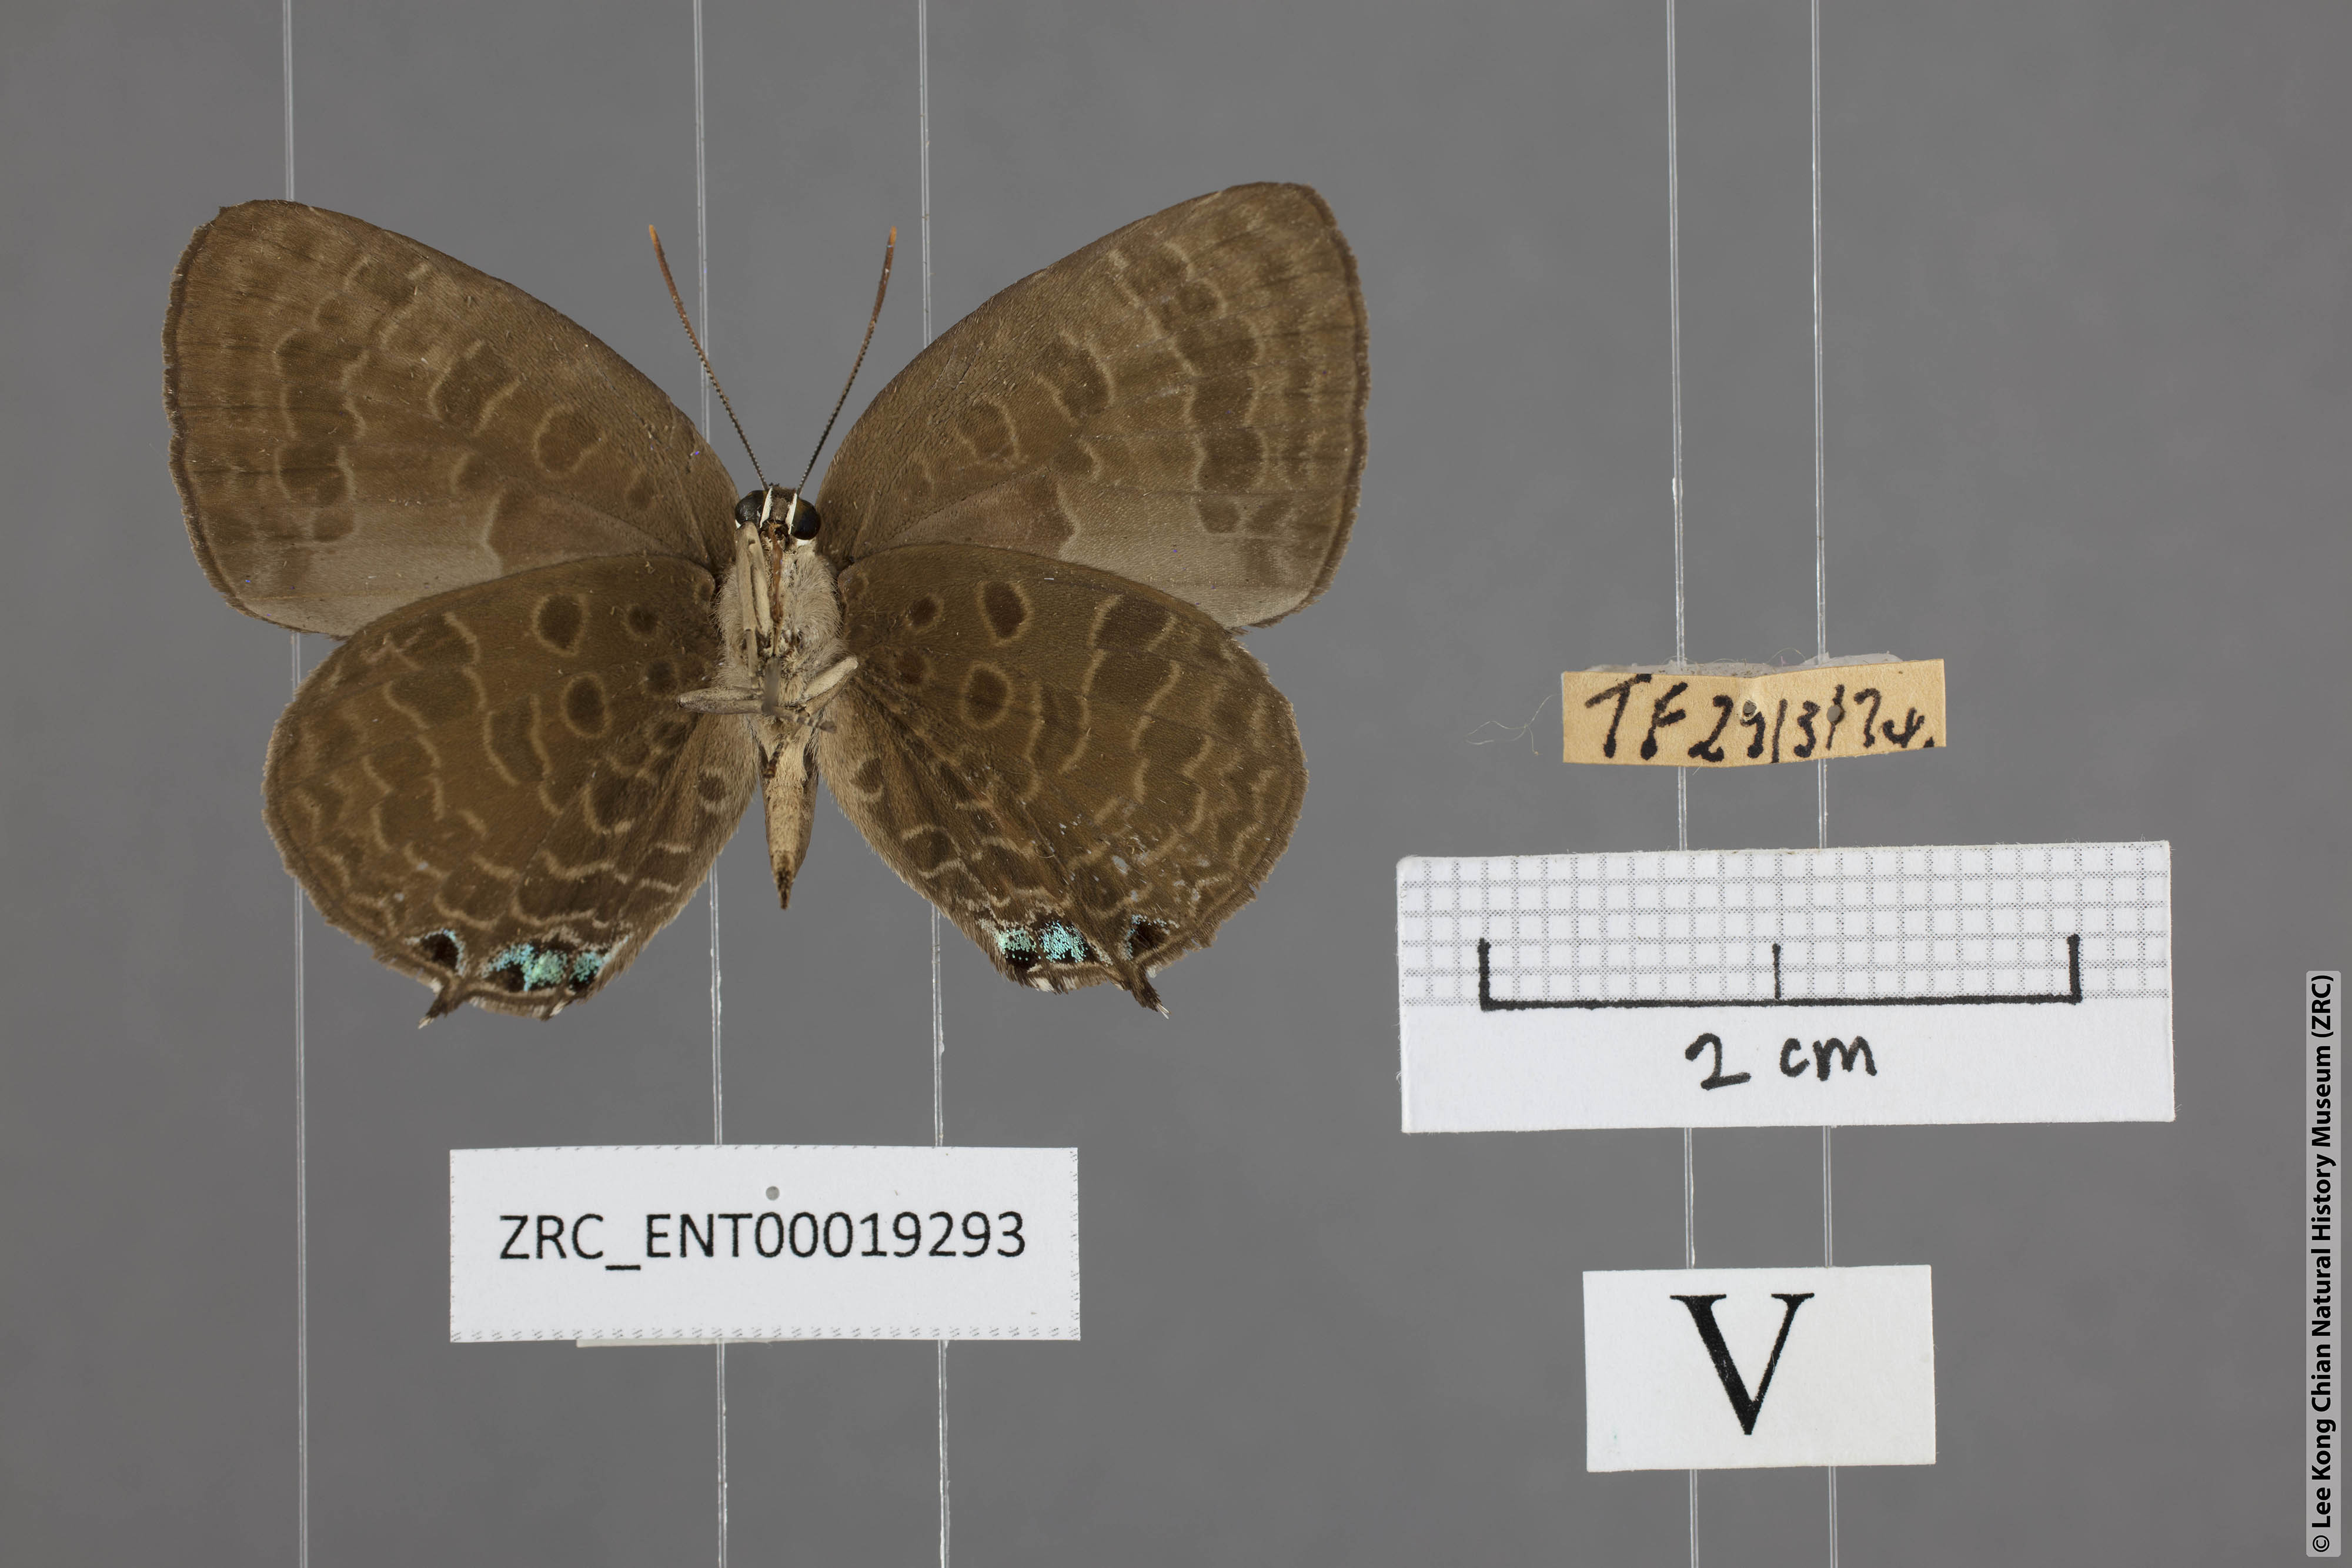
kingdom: Animalia
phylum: Arthropoda
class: Insecta
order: Lepidoptera
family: Lycaenidae
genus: Arhopala
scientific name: Arhopala aurea
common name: Long-celled oakblue
